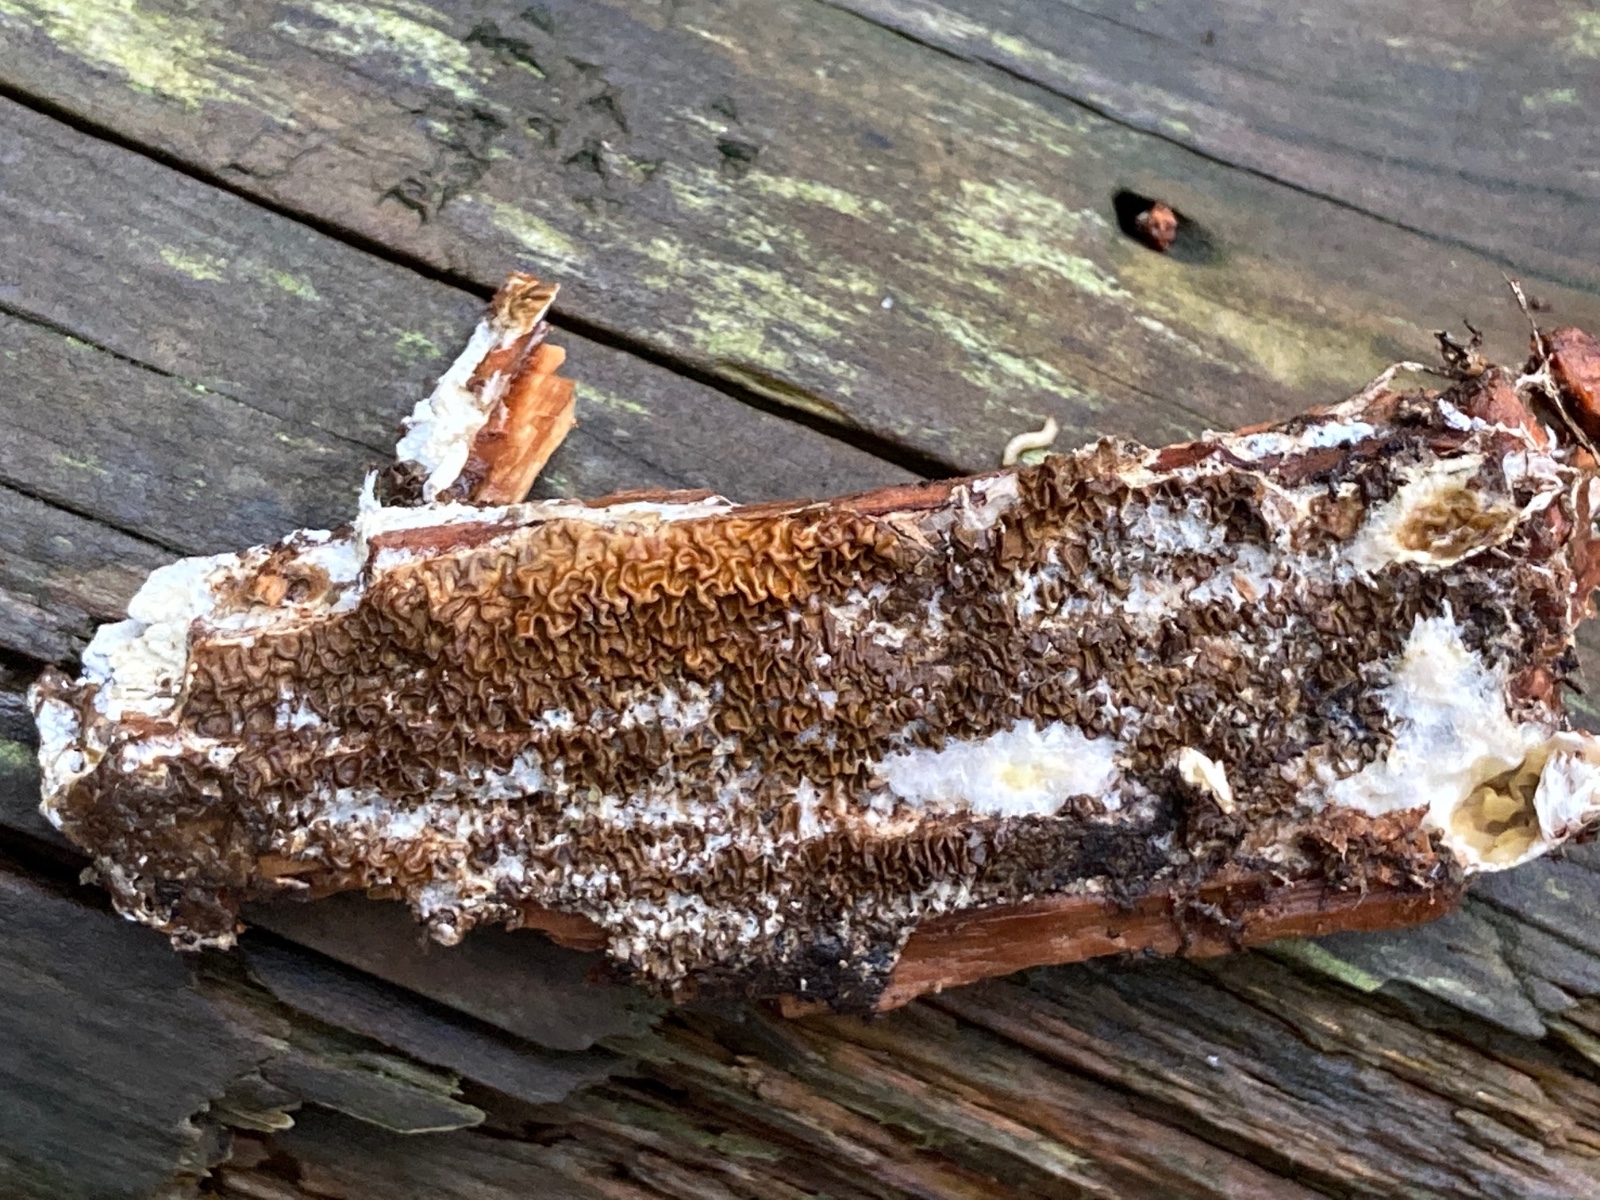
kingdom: Fungi
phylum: Basidiomycota
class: Agaricomycetes
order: Boletales
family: Serpulaceae
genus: Serpula
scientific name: Serpula himantioides
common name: tyndkødet hussvamp
